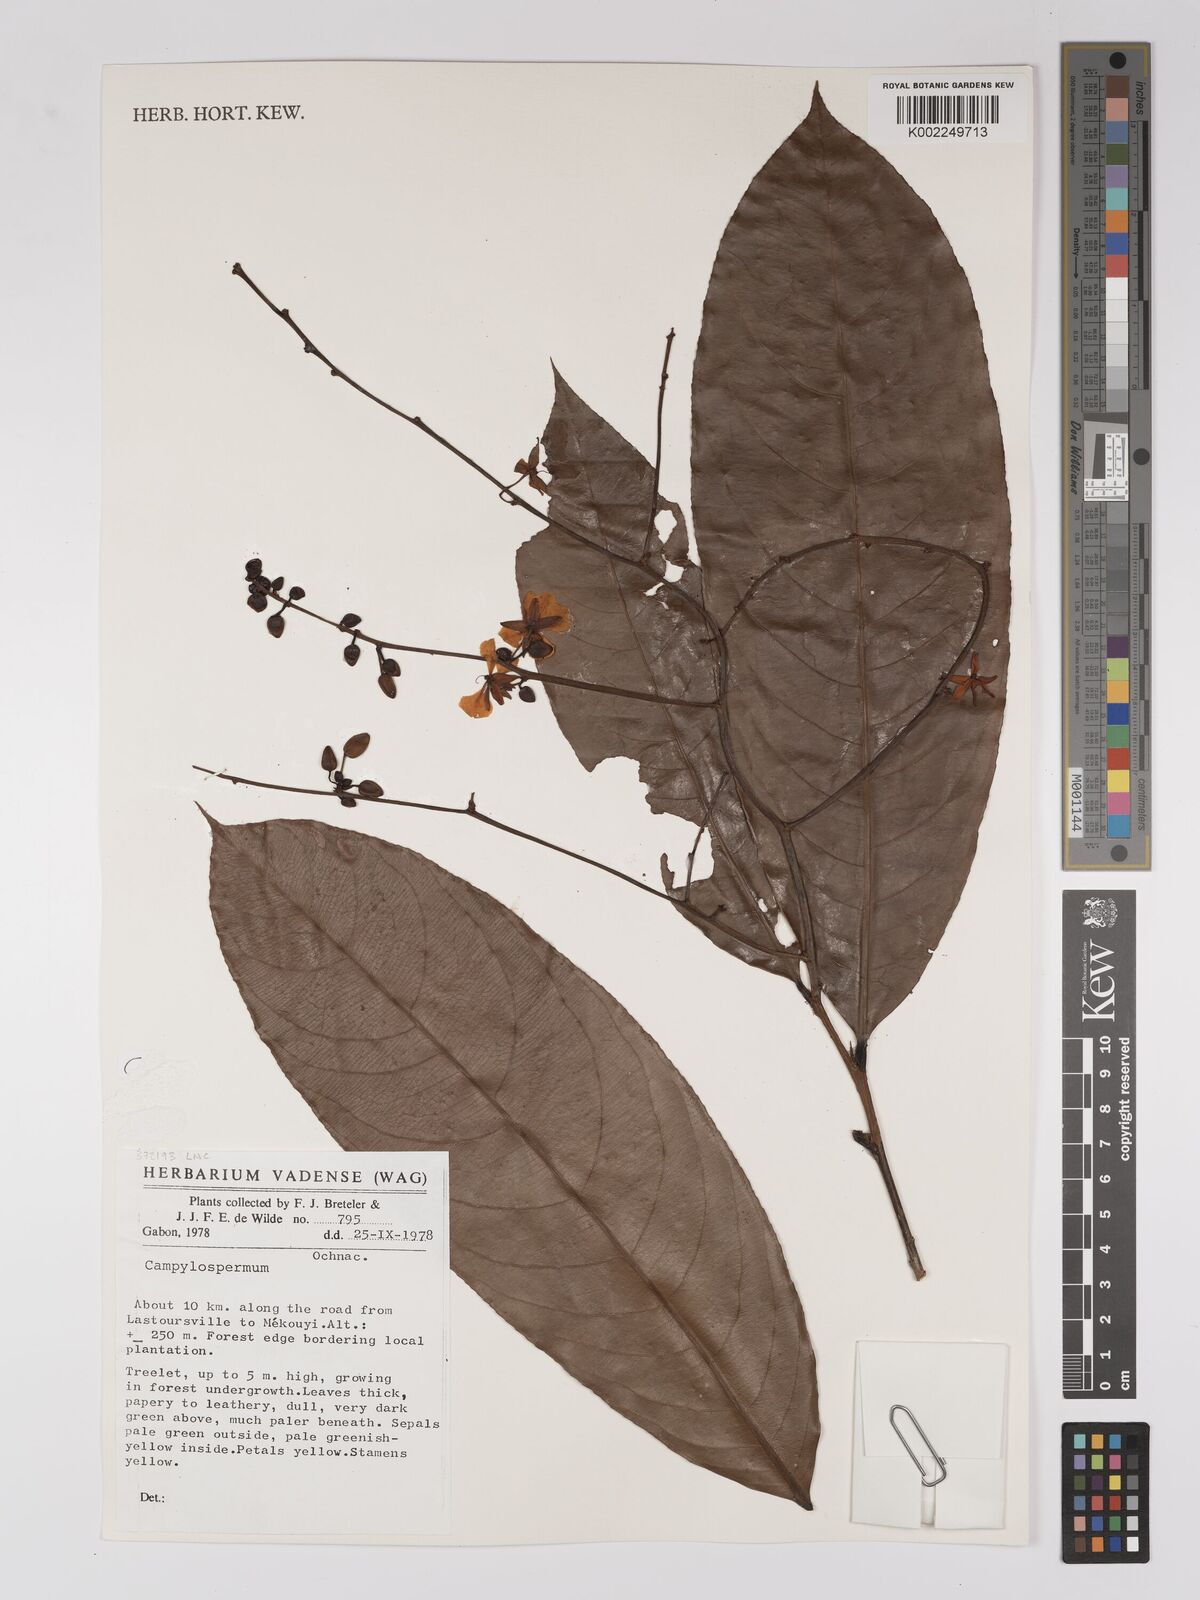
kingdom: Plantae
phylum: Tracheophyta
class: Magnoliopsida
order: Malpighiales
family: Ochnaceae
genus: Campylospermum
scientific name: Campylospermum
